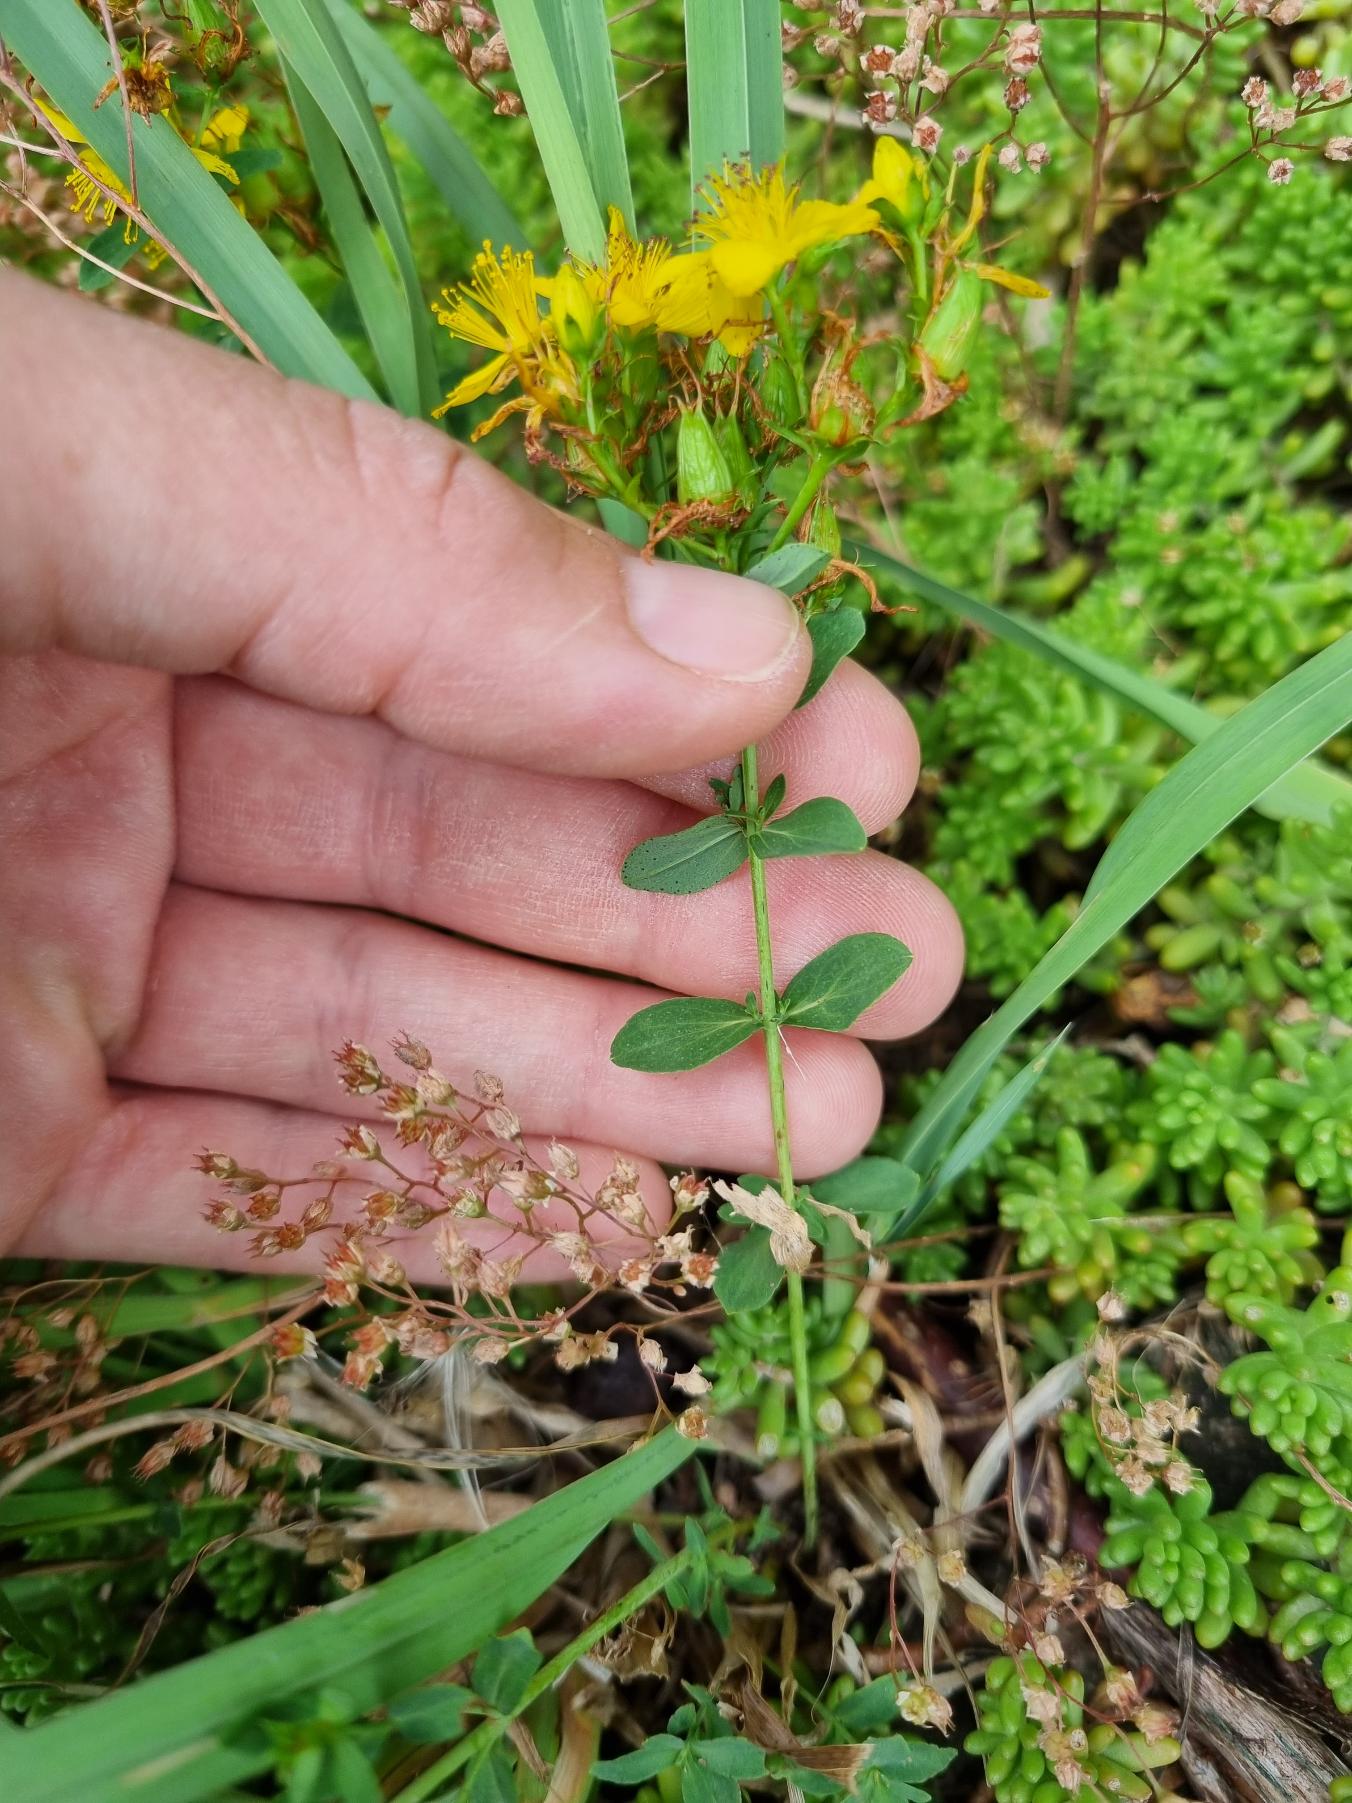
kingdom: Plantae
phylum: Tracheophyta
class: Magnoliopsida
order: Malpighiales
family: Hypericaceae
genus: Hypericum
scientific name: Hypericum perforatum
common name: Prikbladet perikon
